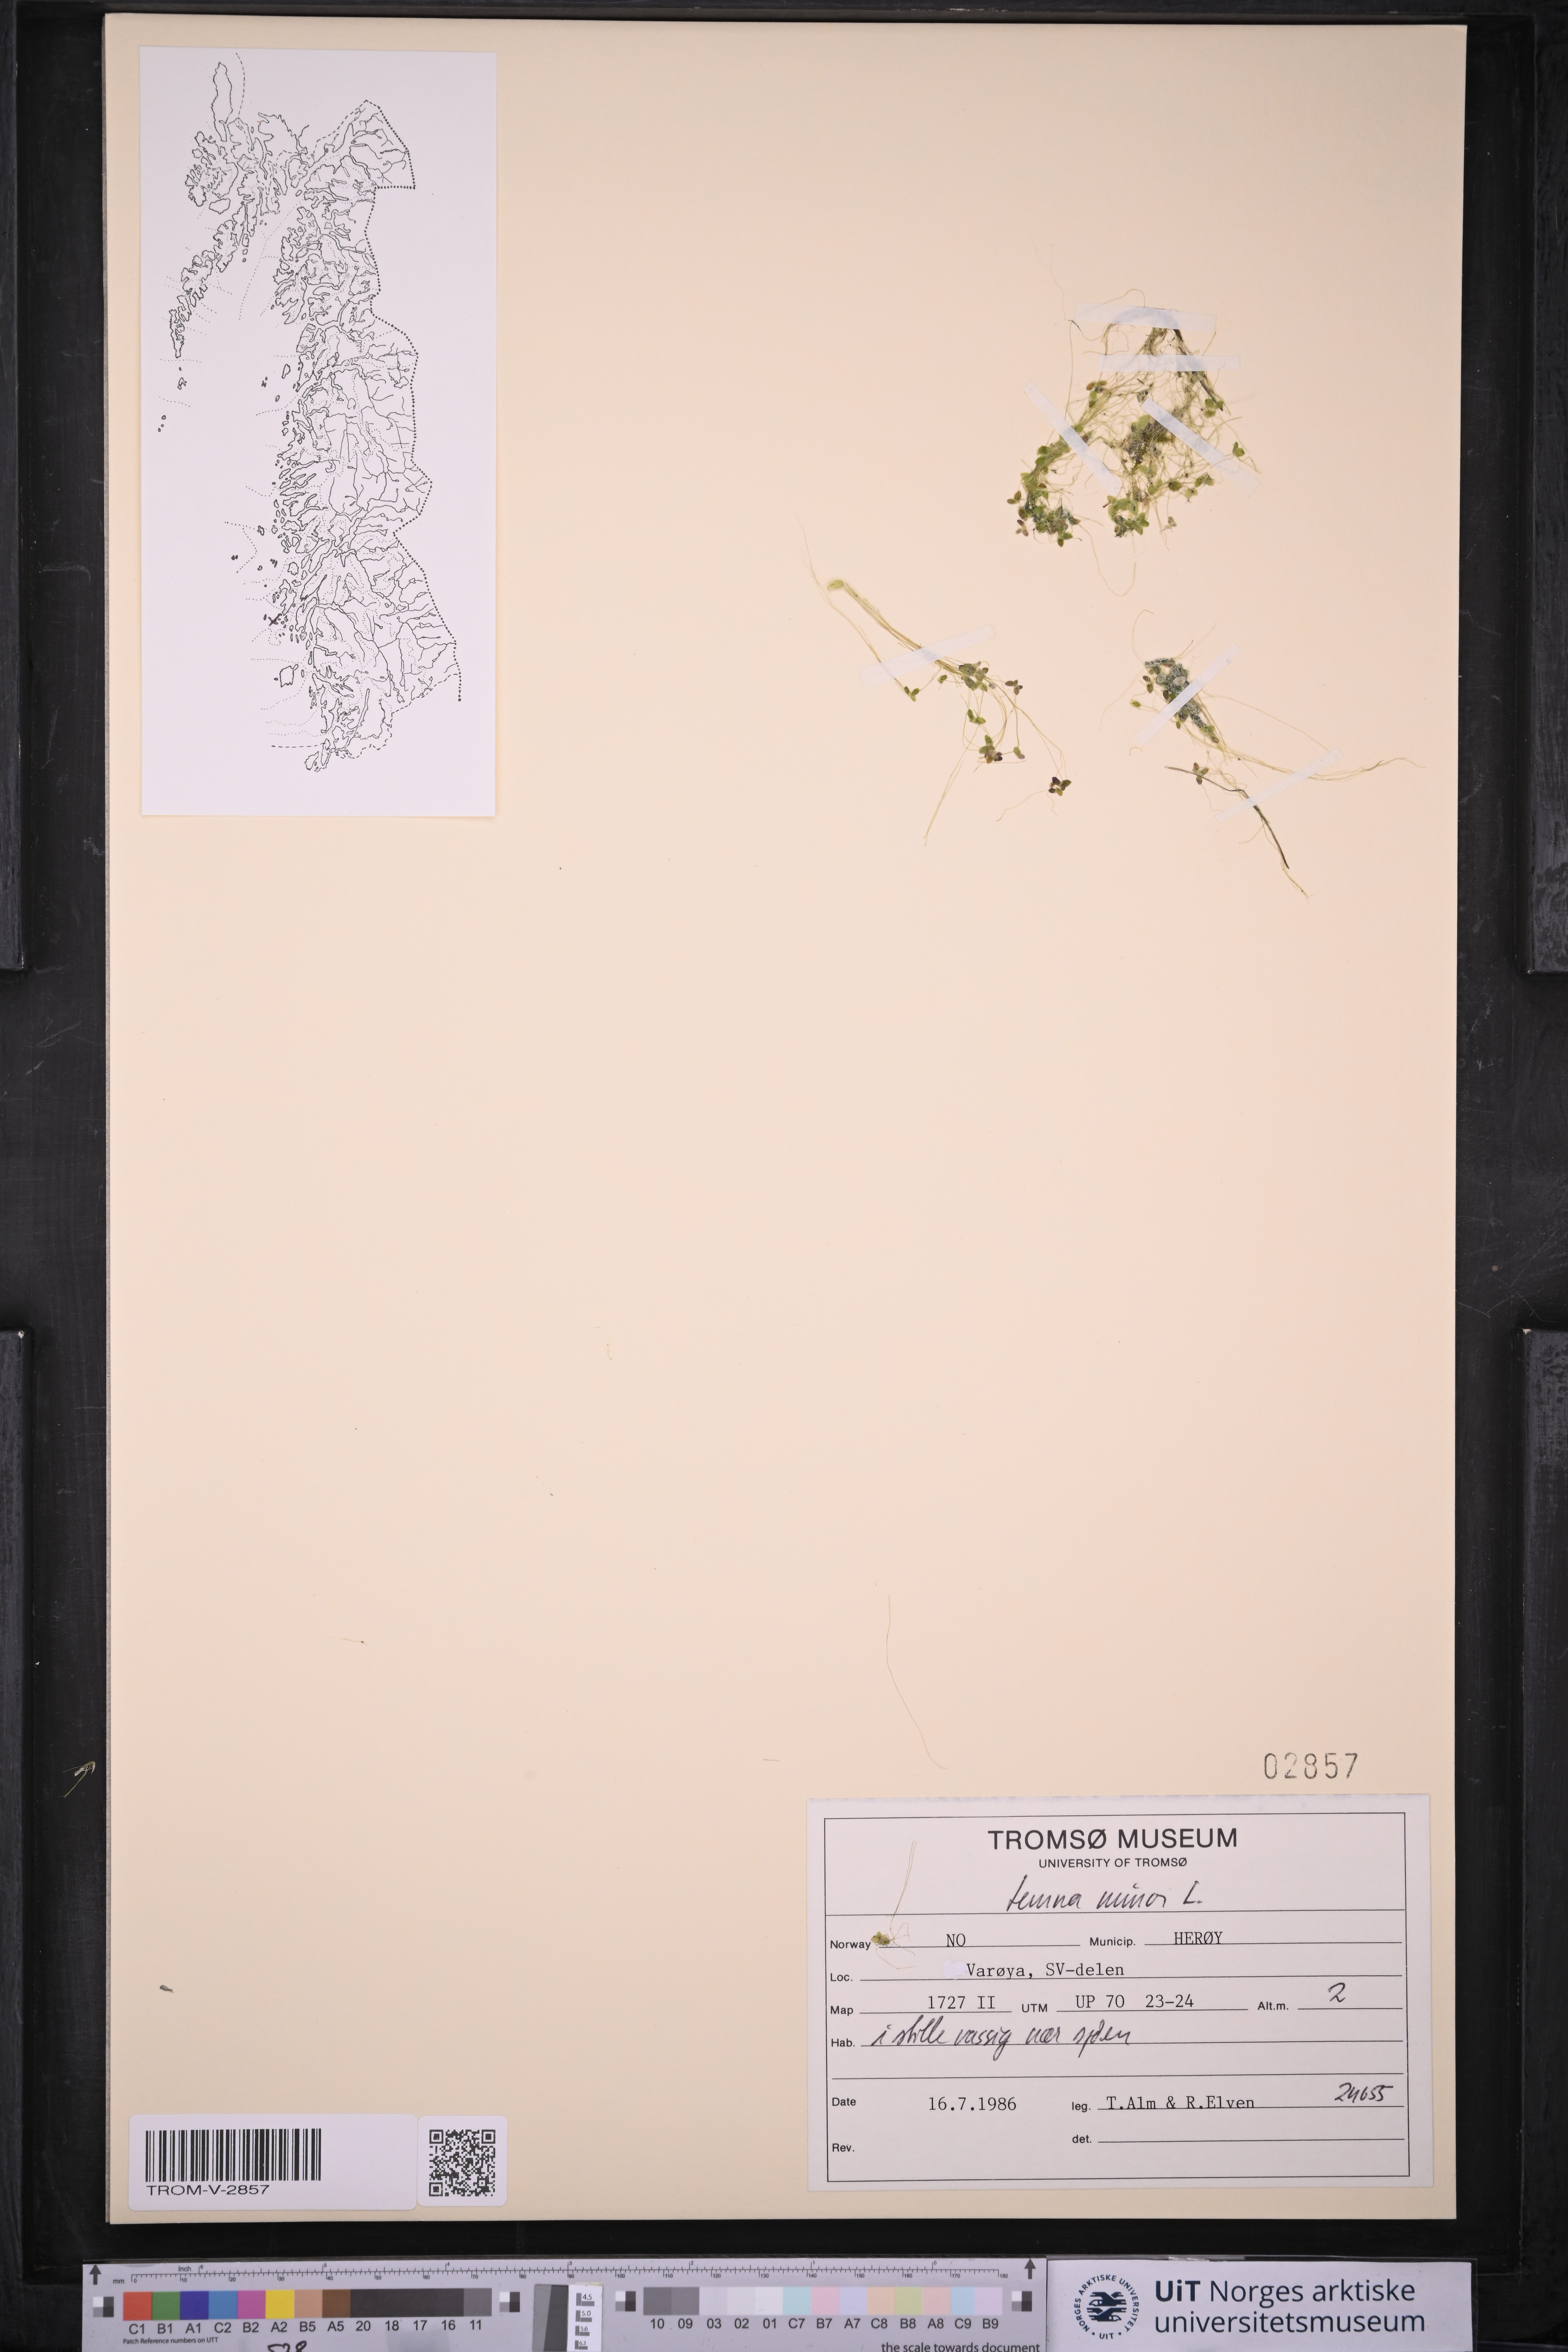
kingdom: Plantae
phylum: Tracheophyta
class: Liliopsida
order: Alismatales
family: Araceae
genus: Lemna
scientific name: Lemna minor
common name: Common duckweed
